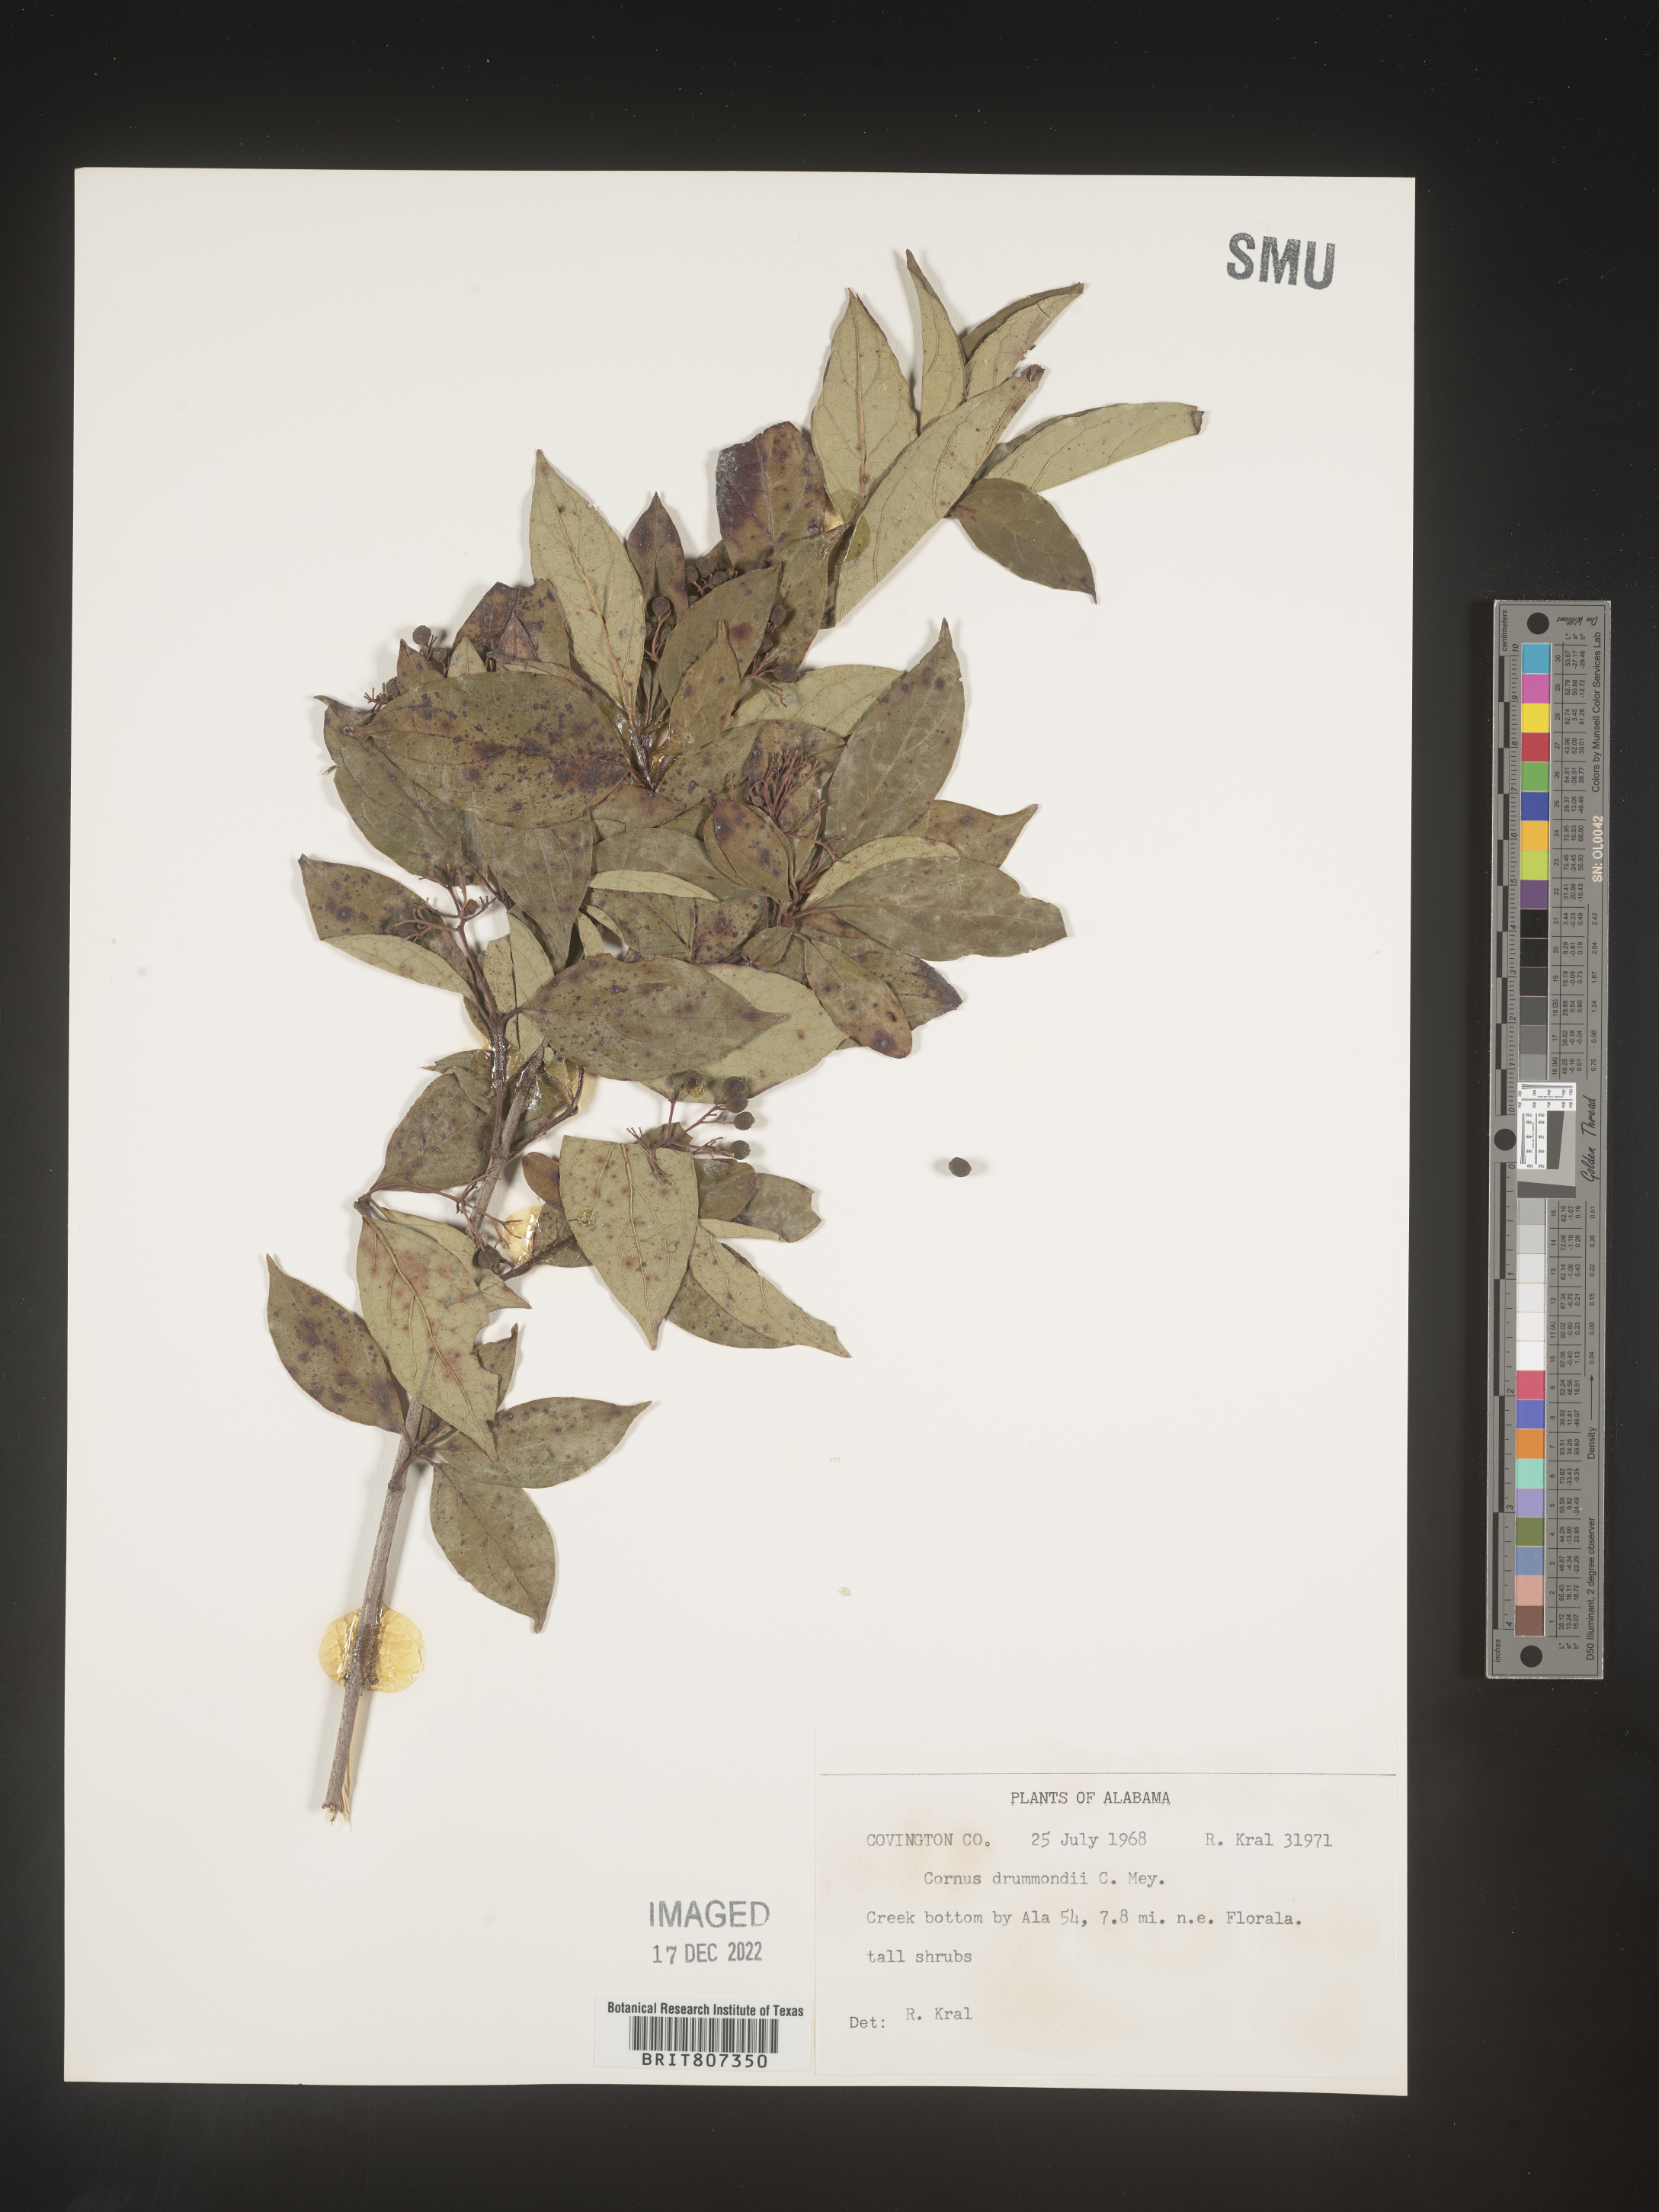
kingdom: Plantae
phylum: Tracheophyta
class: Magnoliopsida
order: Cornales
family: Cornaceae
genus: Cornus
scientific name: Cornus drummondii
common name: Rough-leaf dogwood
